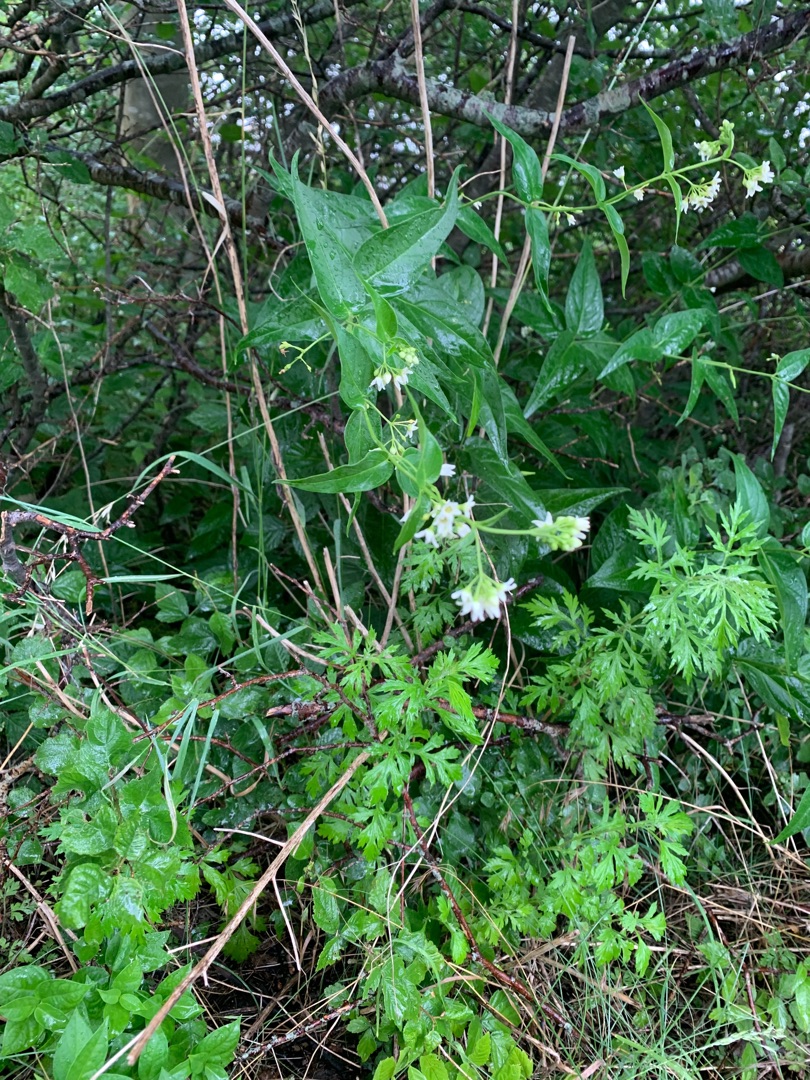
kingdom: Plantae
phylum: Tracheophyta
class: Magnoliopsida
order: Gentianales
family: Apocynaceae
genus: Vincetoxicum
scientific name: Vincetoxicum hirundinaria
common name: Svalerod
